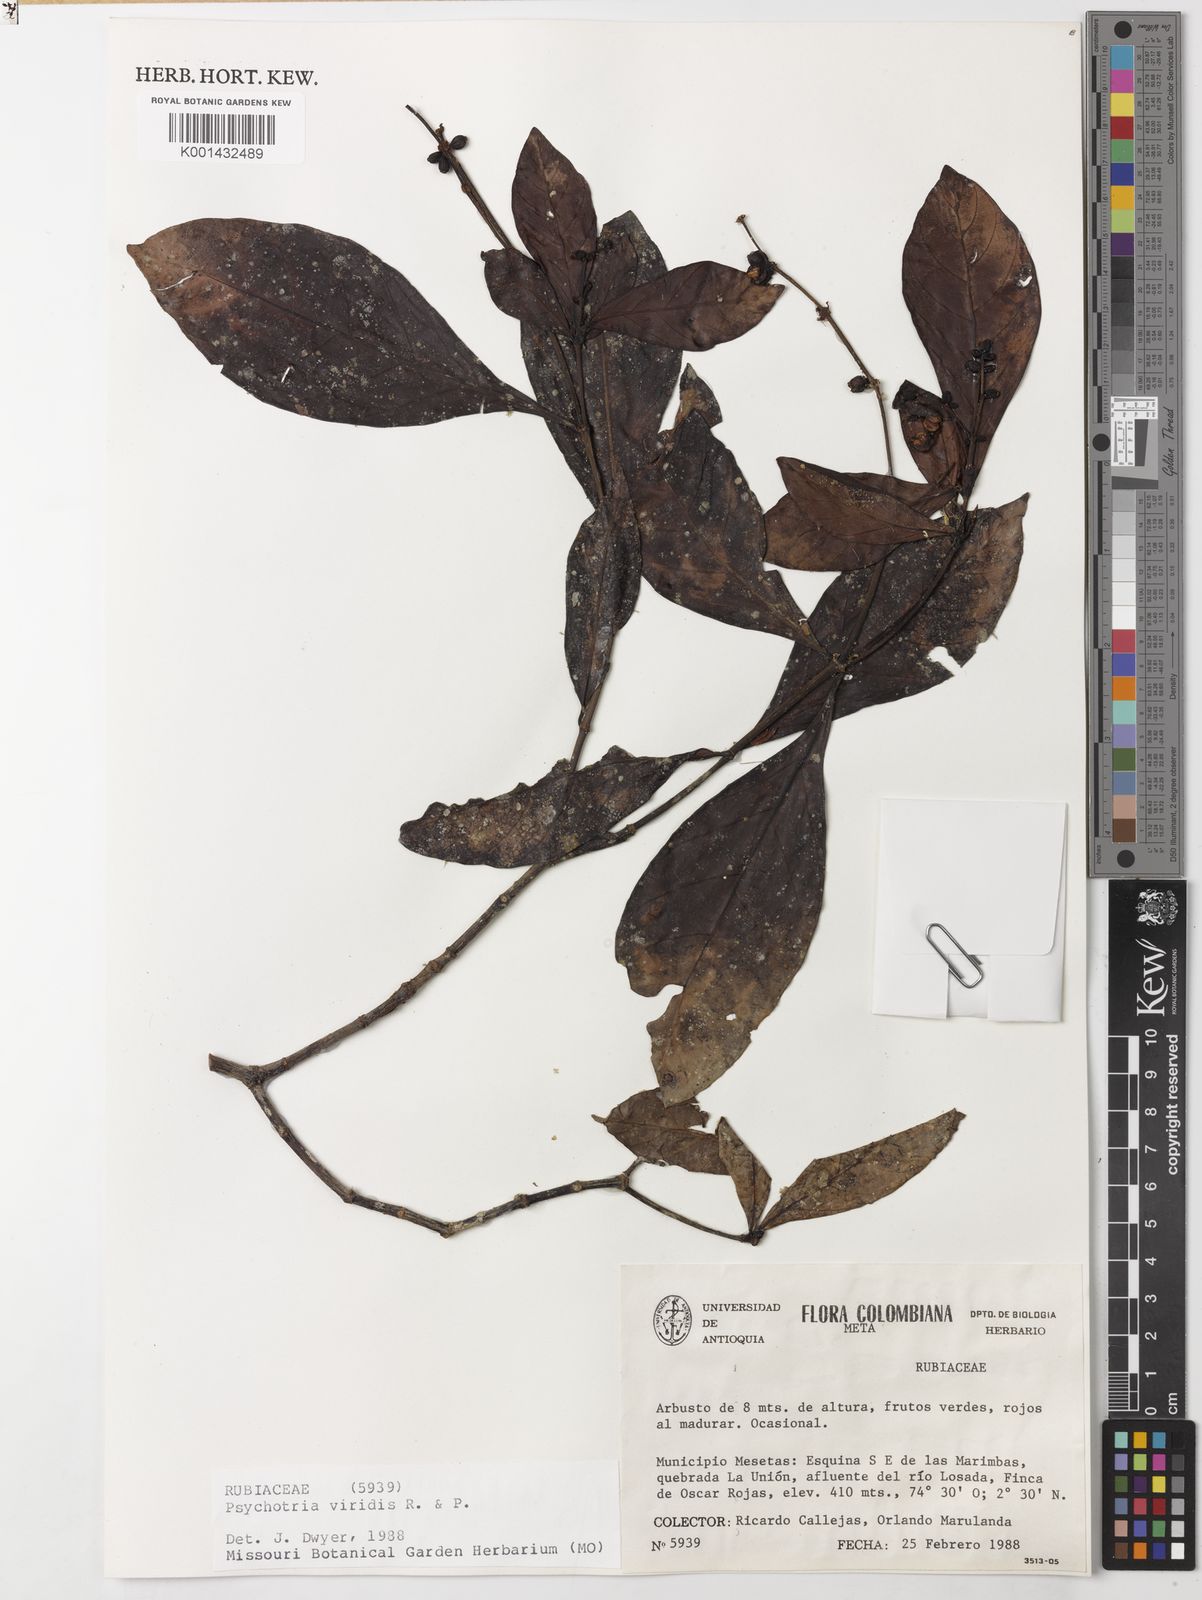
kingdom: Plantae
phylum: Tracheophyta
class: Magnoliopsida
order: Gentianales
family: Rubiaceae
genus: Psychotria
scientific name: Psychotria viridis
